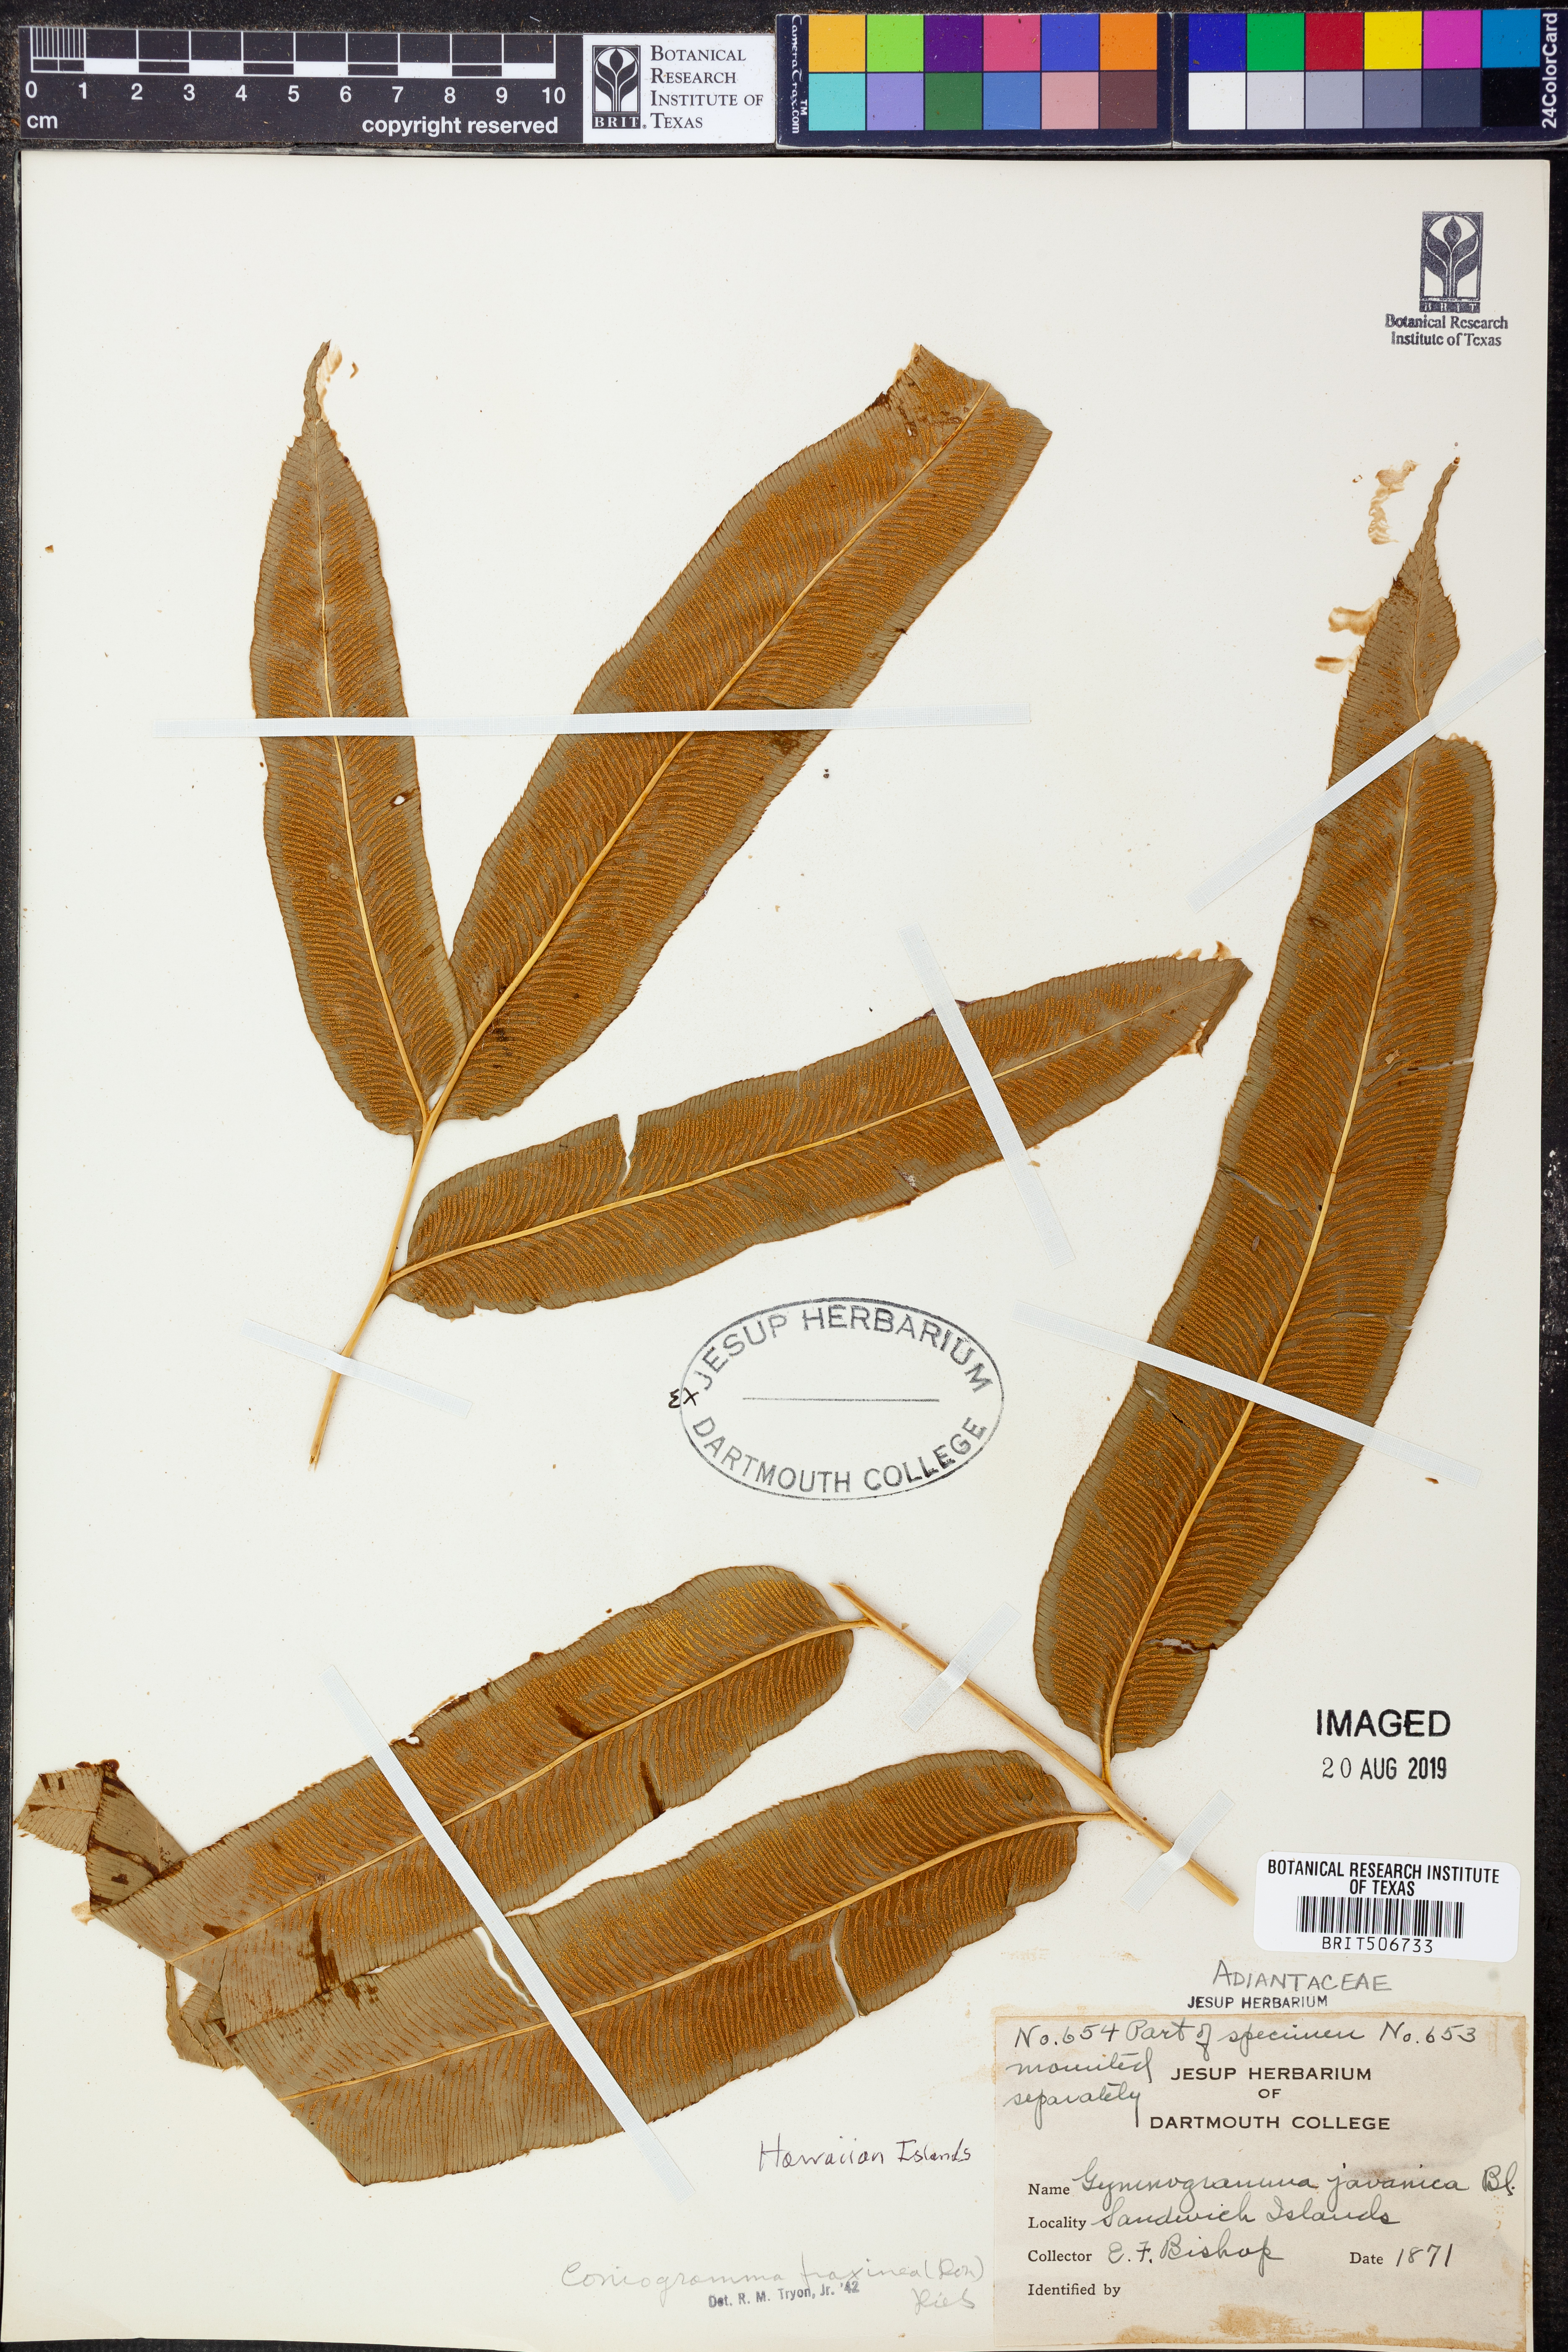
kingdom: Plantae
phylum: Tracheophyta
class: Polypodiopsida
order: Polypodiales
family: Pteridaceae
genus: Coniogramme
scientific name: Coniogramme fraxinea
